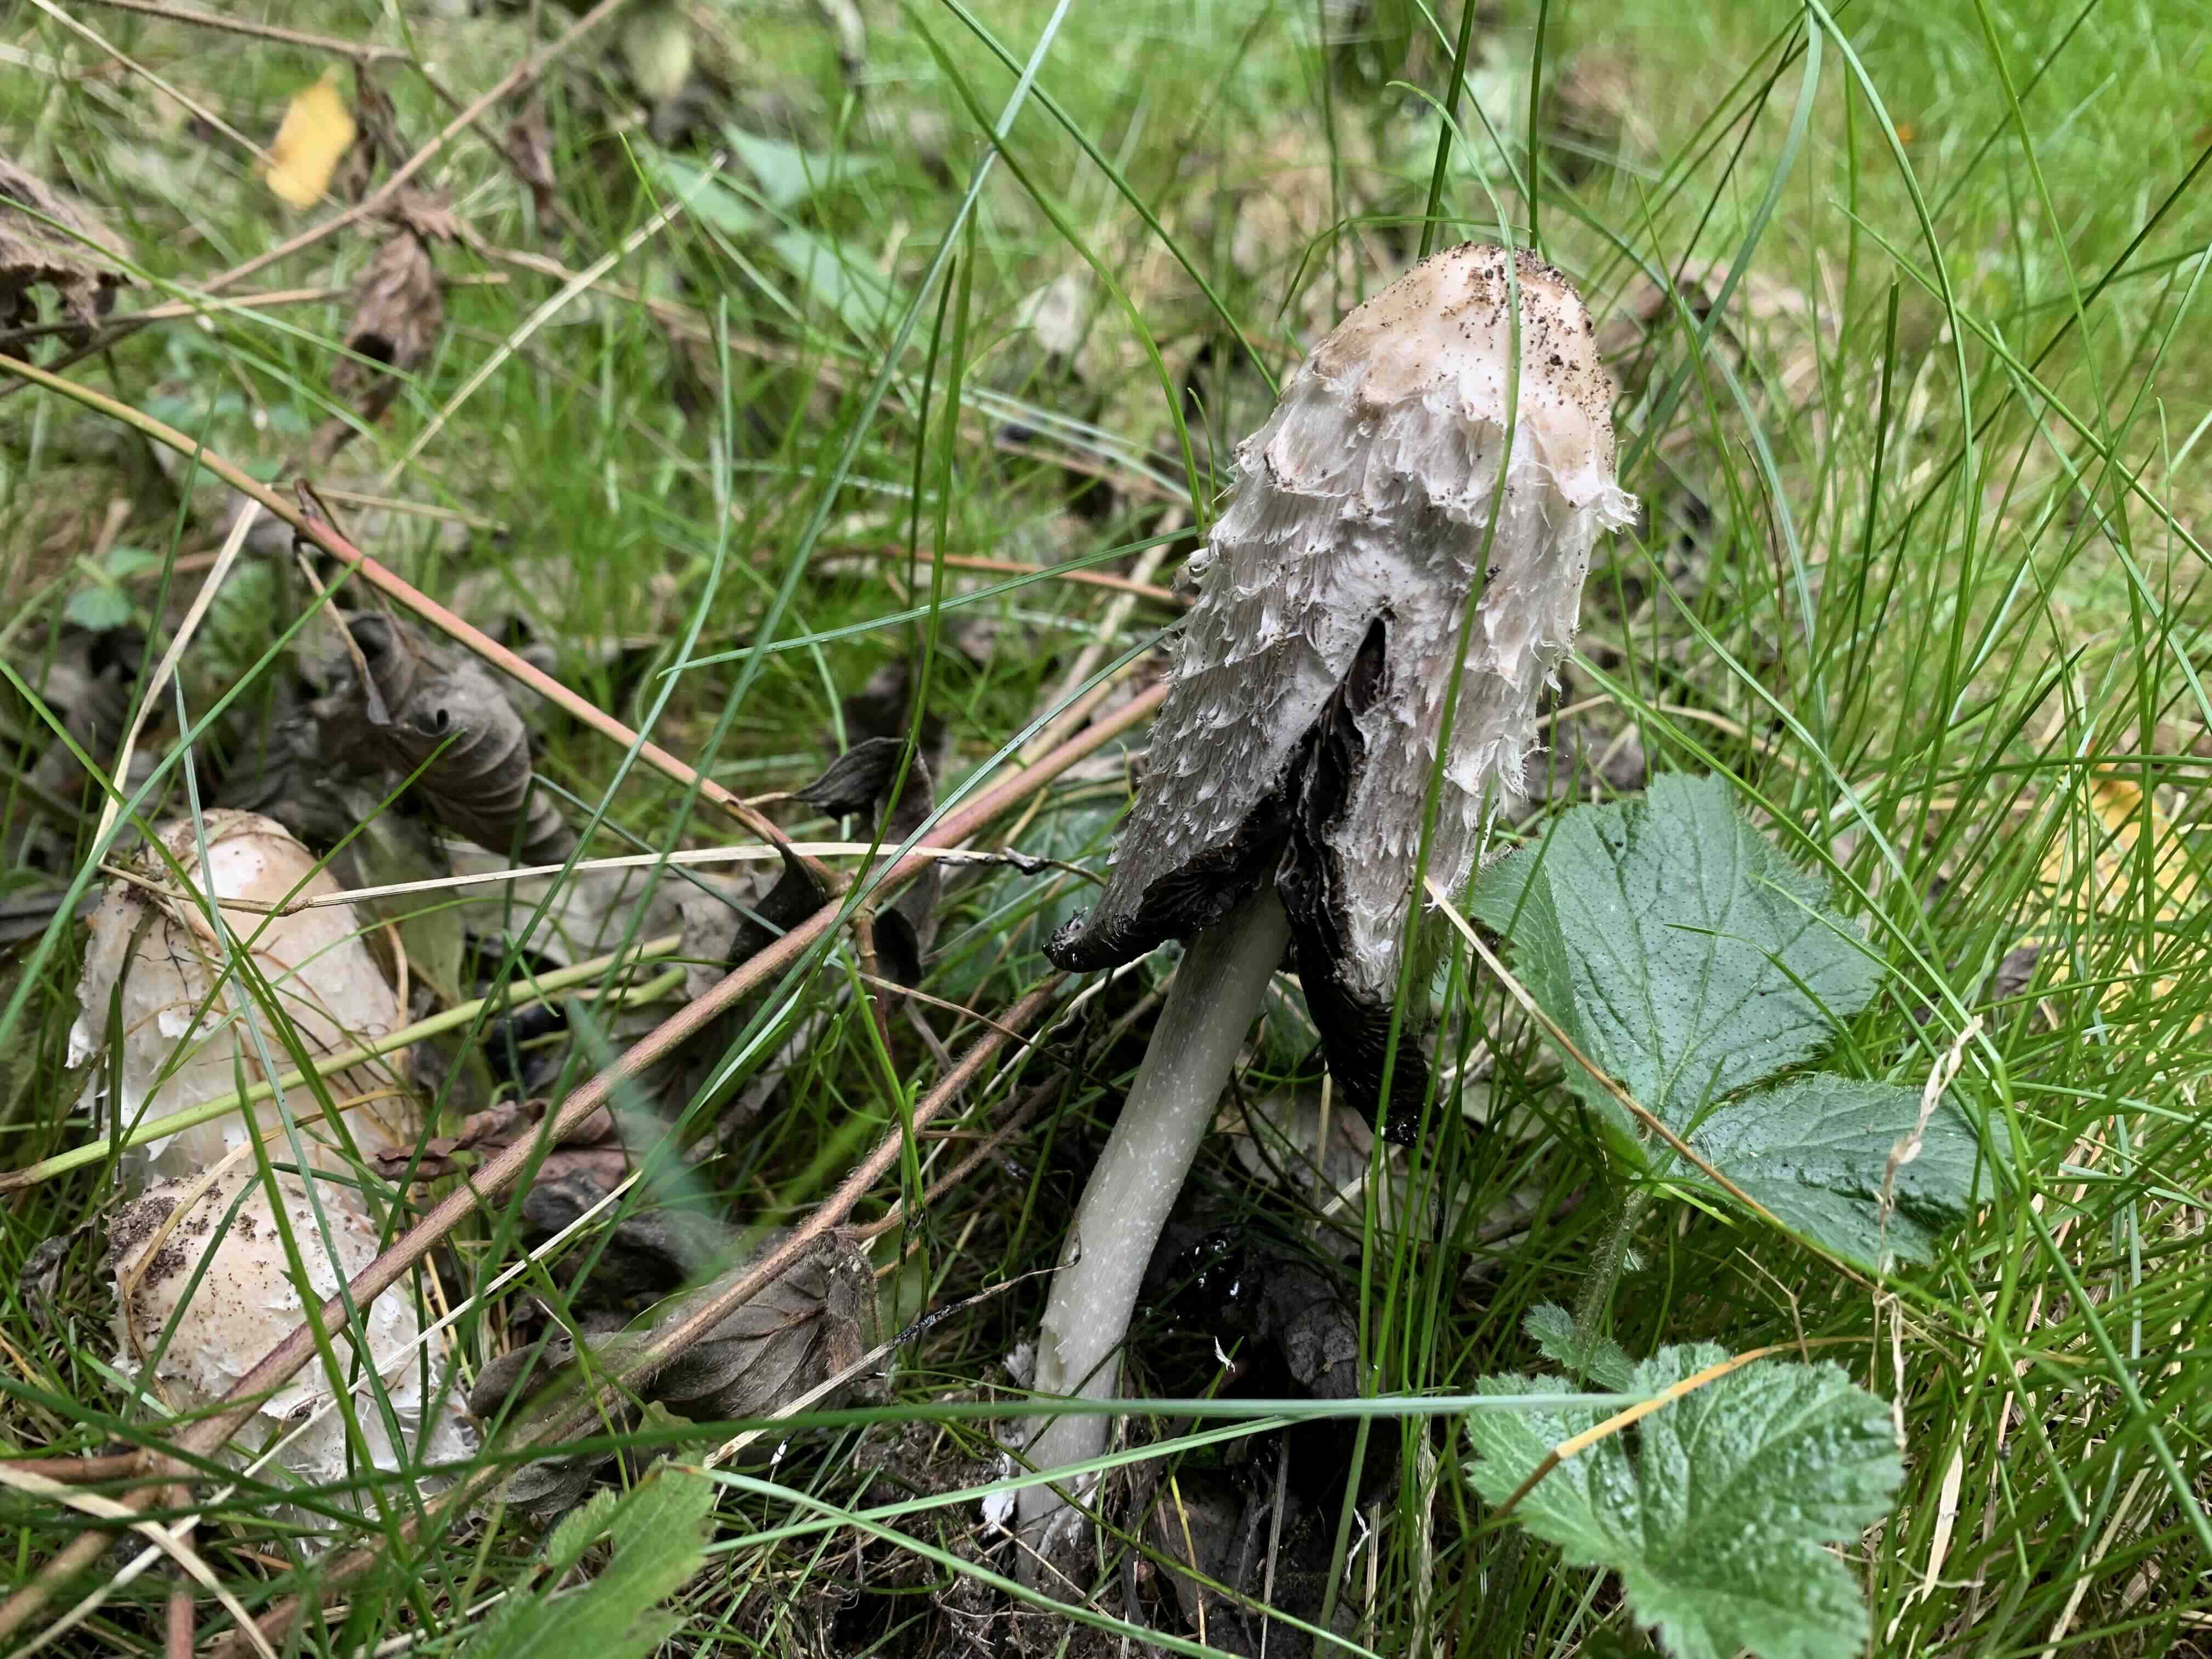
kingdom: Fungi
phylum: Basidiomycota
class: Agaricomycetes
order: Agaricales
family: Agaricaceae
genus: Coprinus
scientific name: Coprinus comatus
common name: stor parykhat
